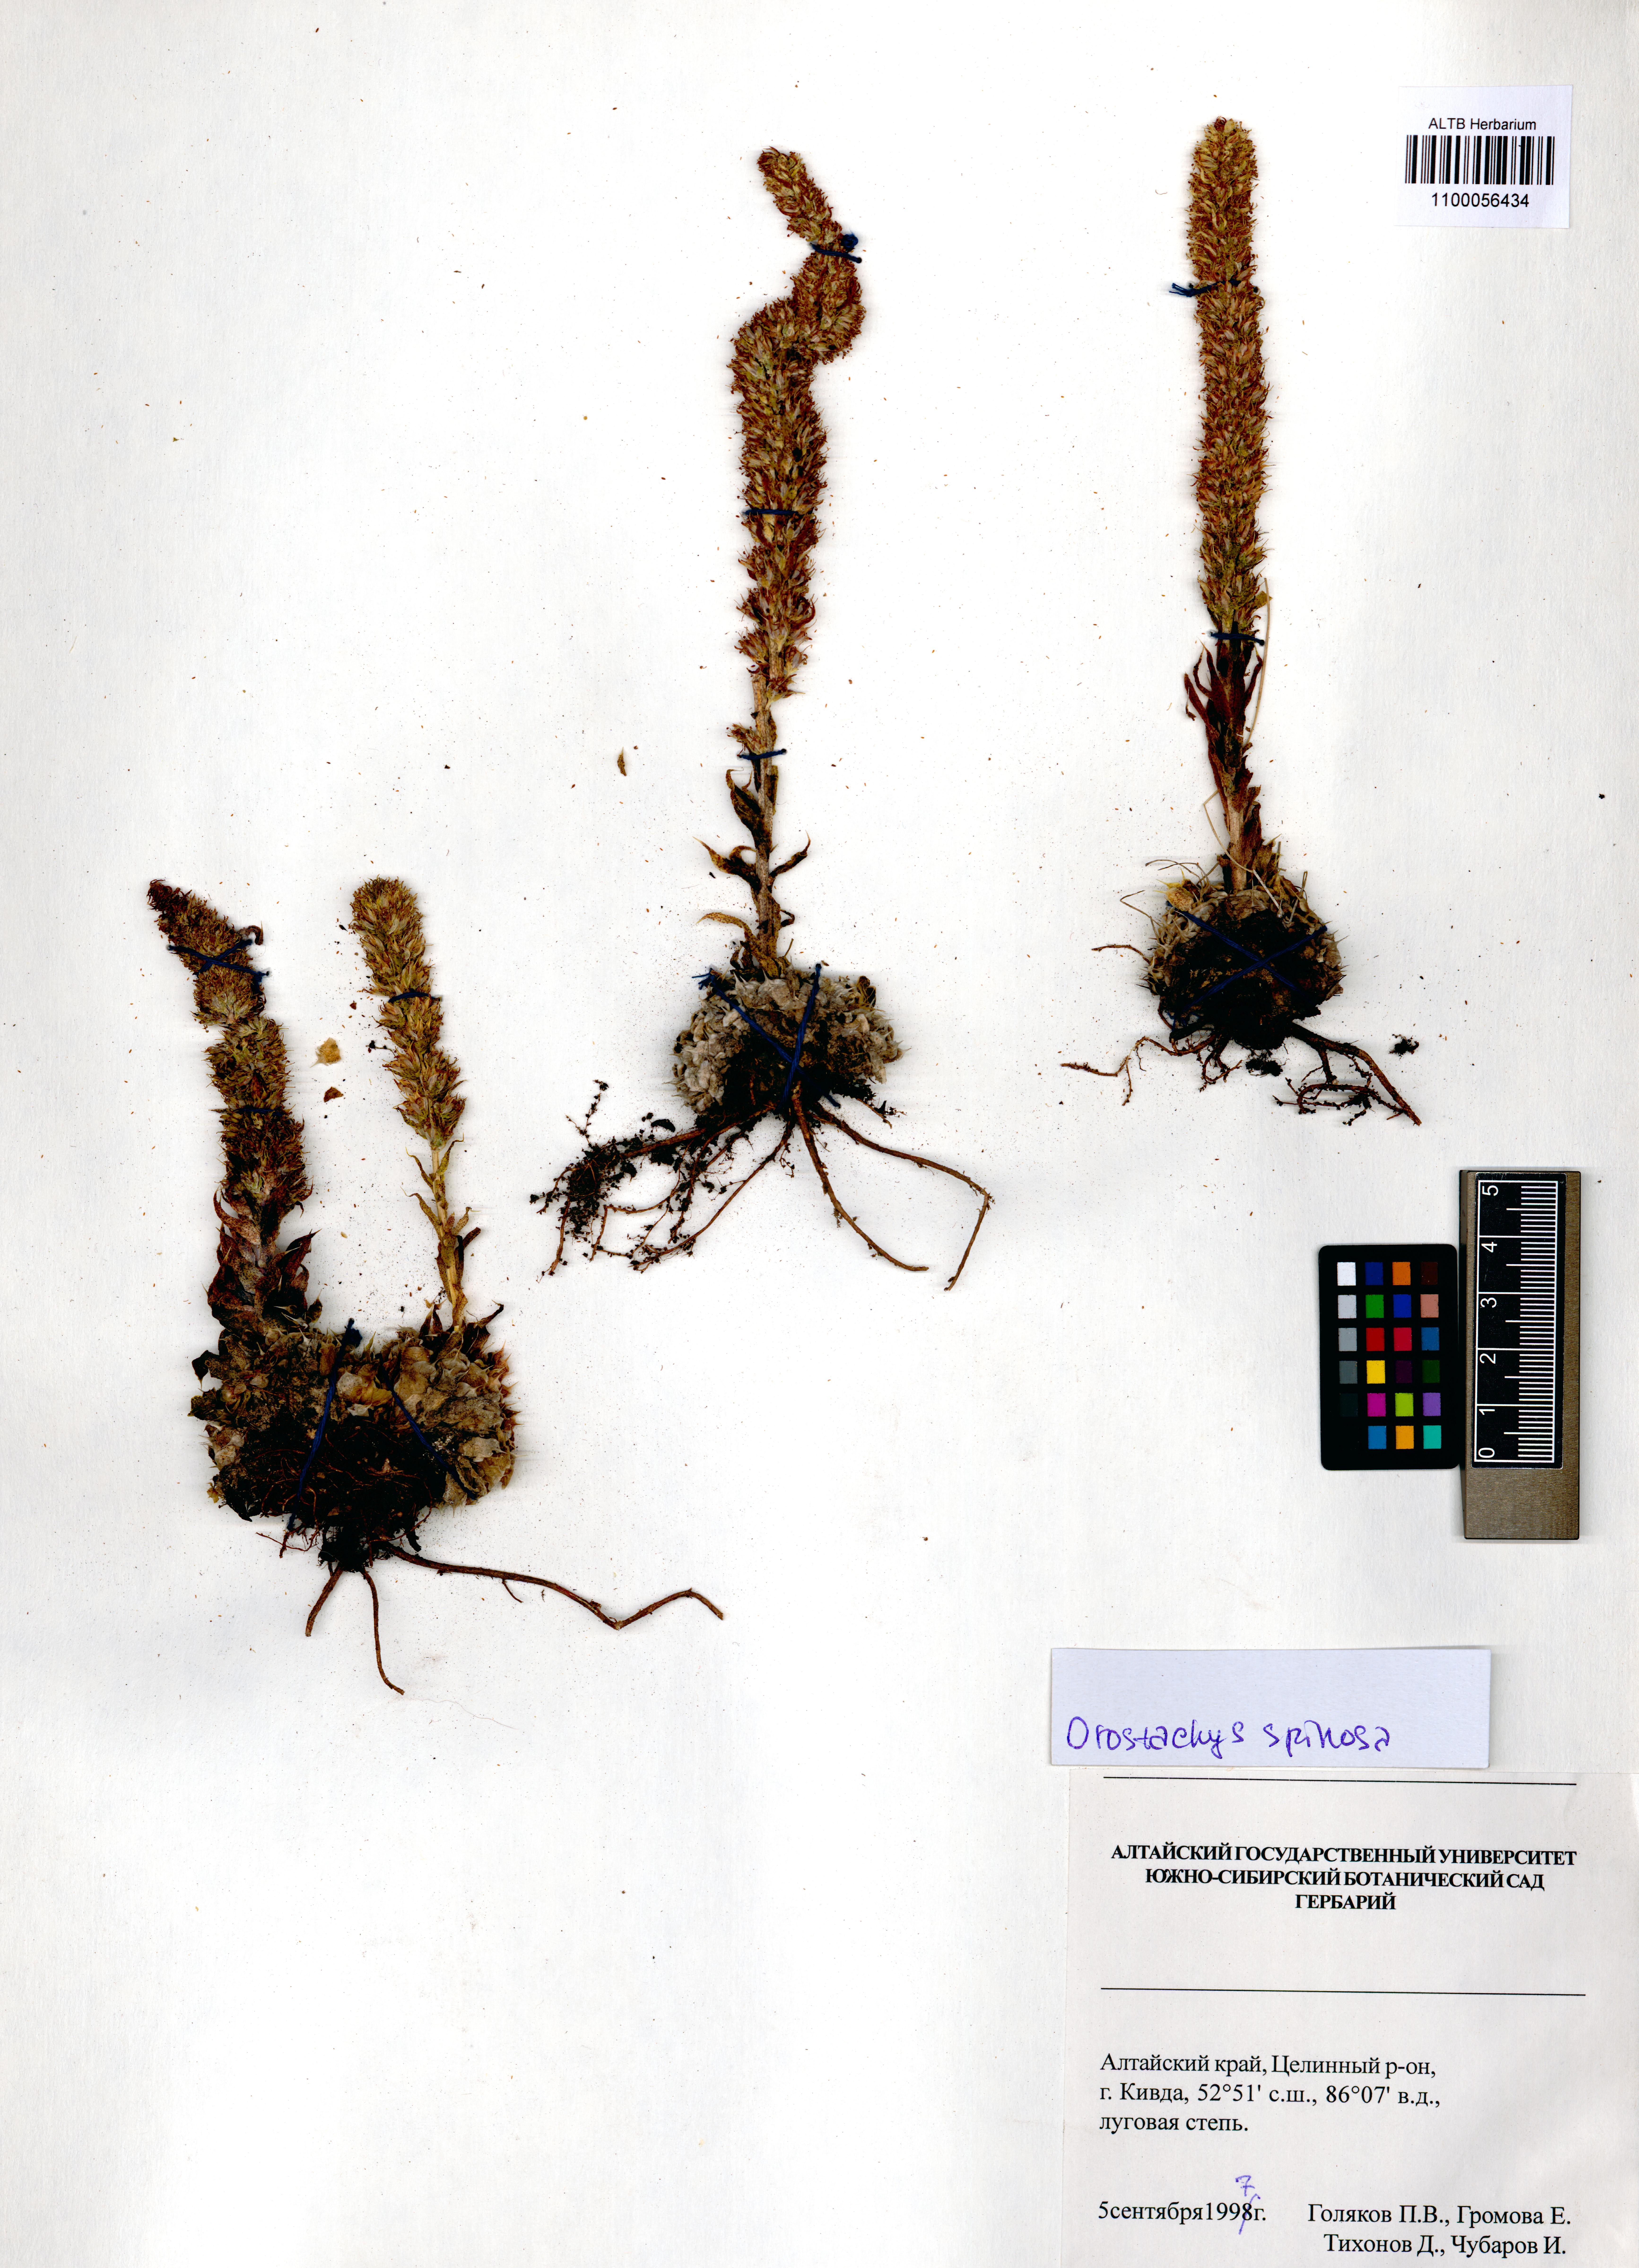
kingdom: Plantae
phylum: Tracheophyta
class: Magnoliopsida
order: Saxifragales
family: Crassulaceae
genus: Orostachys
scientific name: Orostachys spinosa
